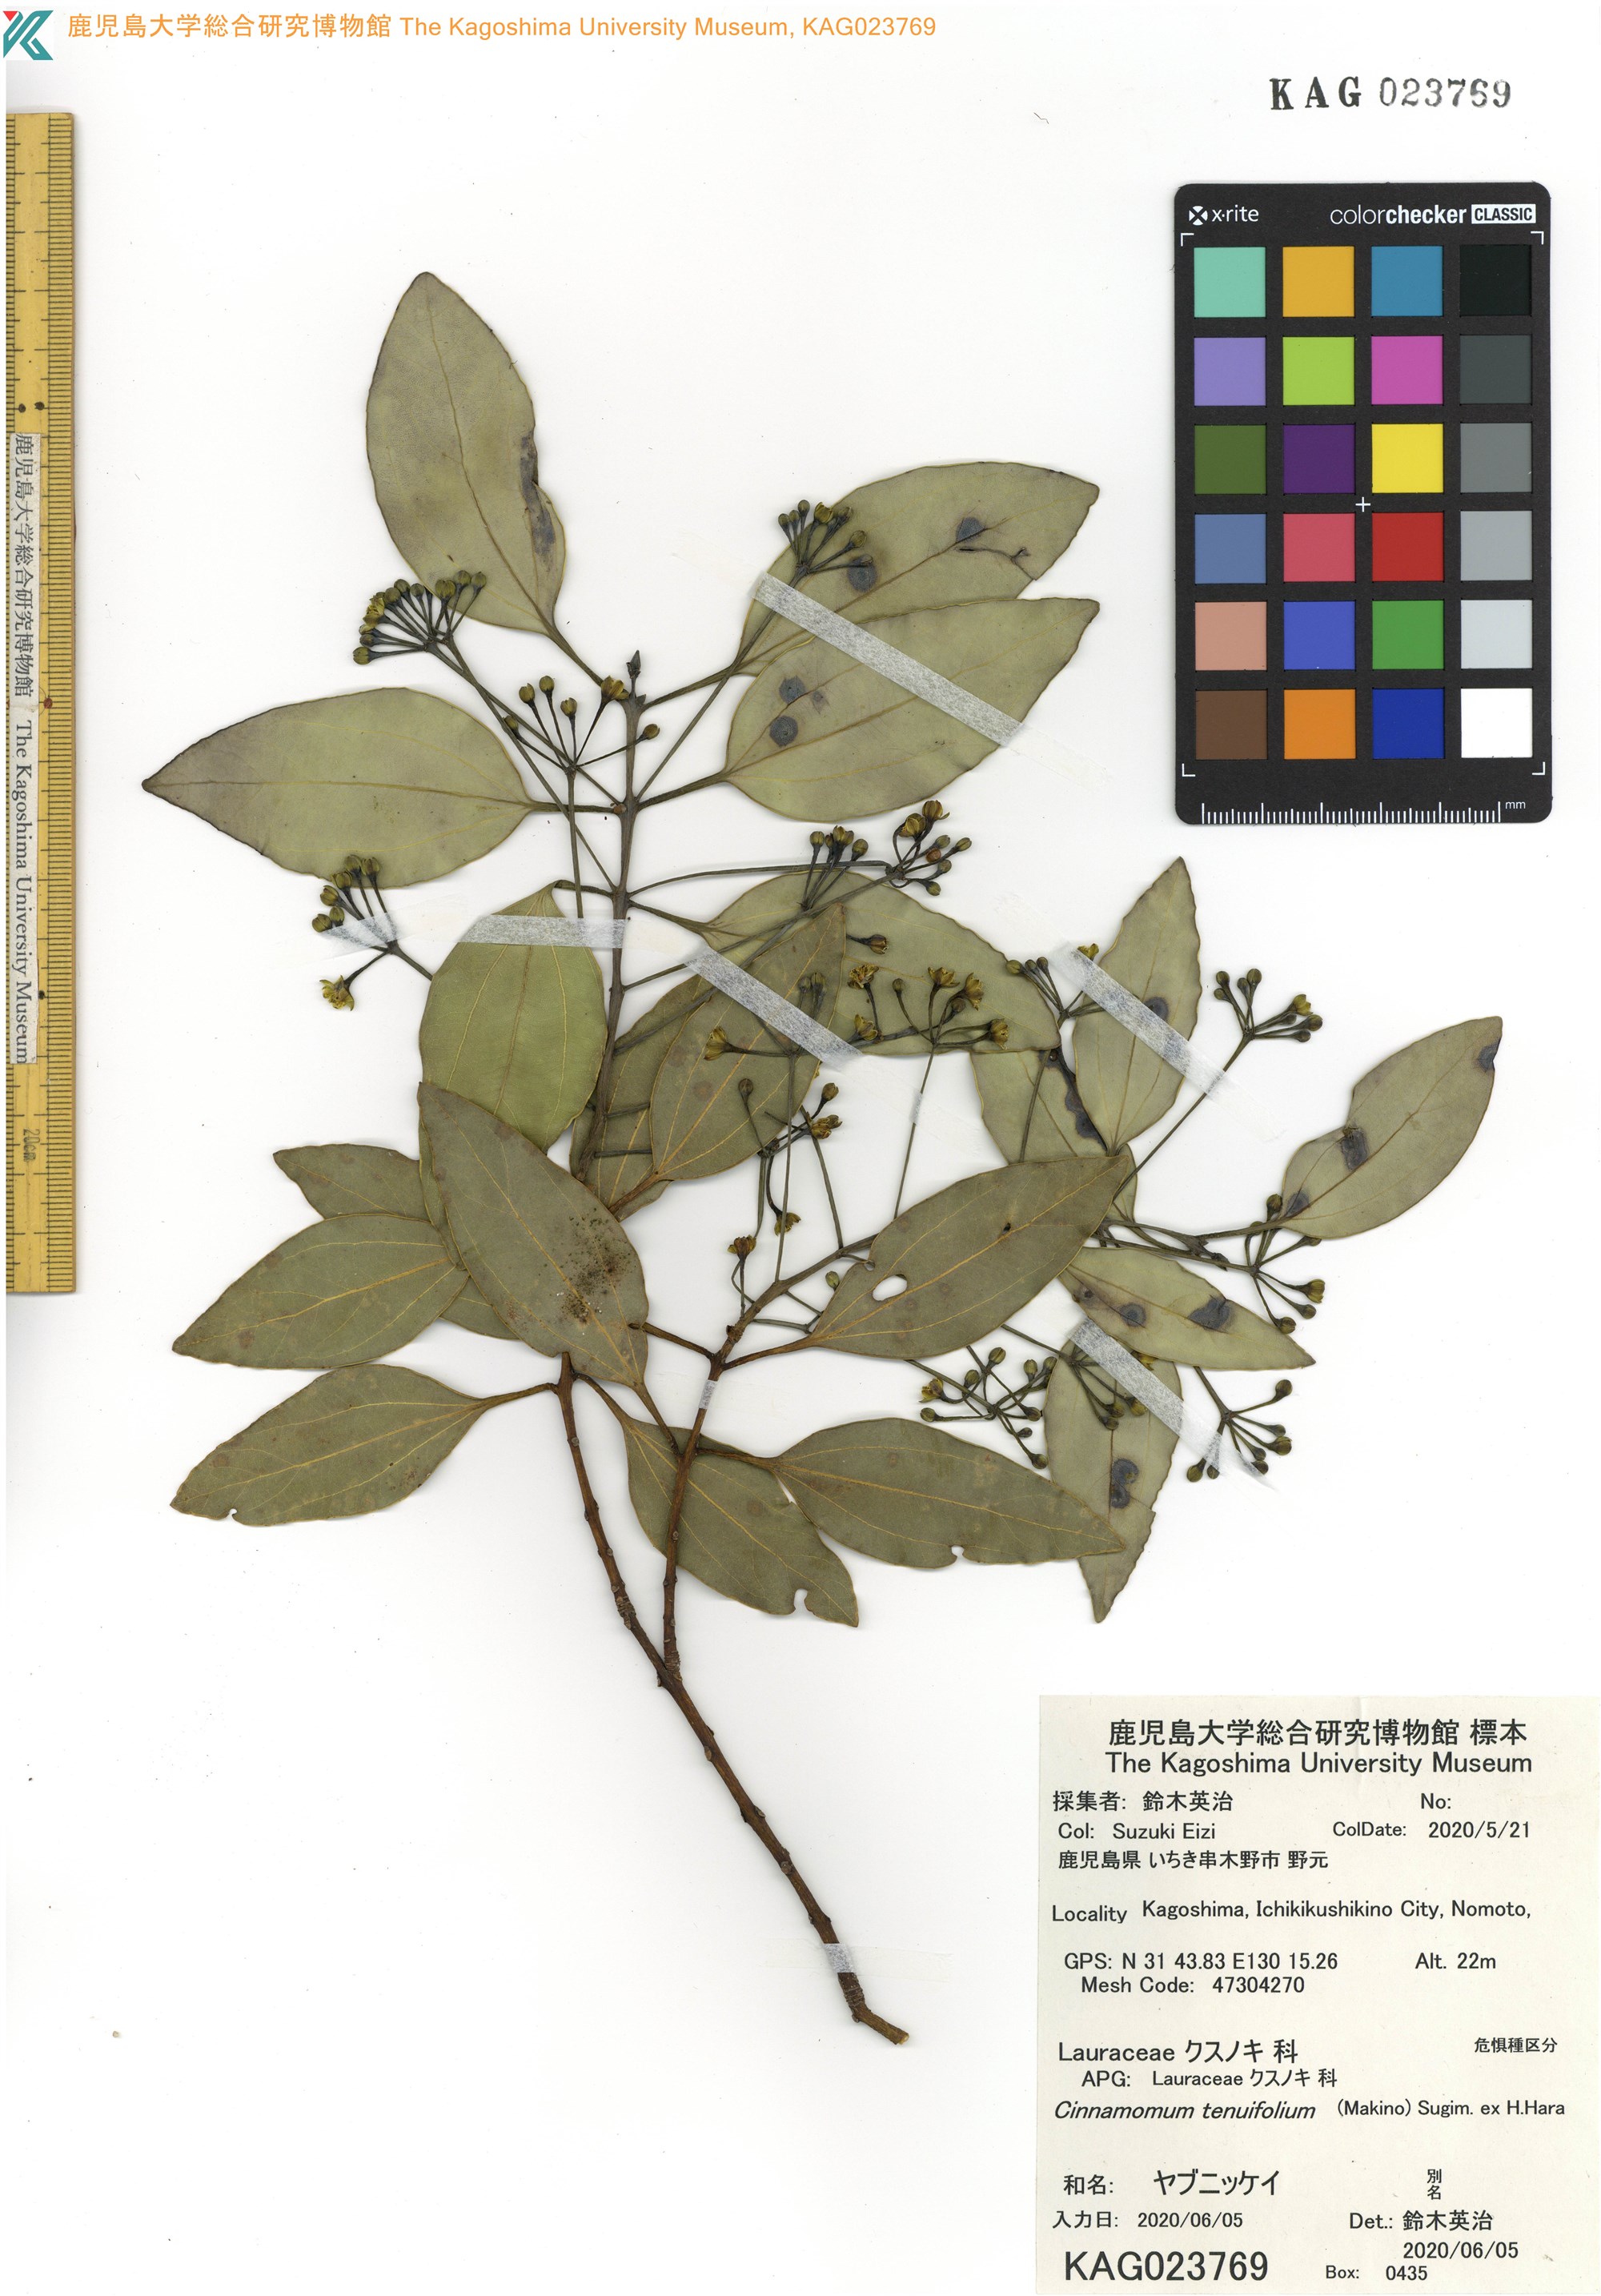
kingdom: Plantae
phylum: Tracheophyta
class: Magnoliopsida
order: Laurales
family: Lauraceae
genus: Cinnamomum
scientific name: Cinnamomum chekiangense
